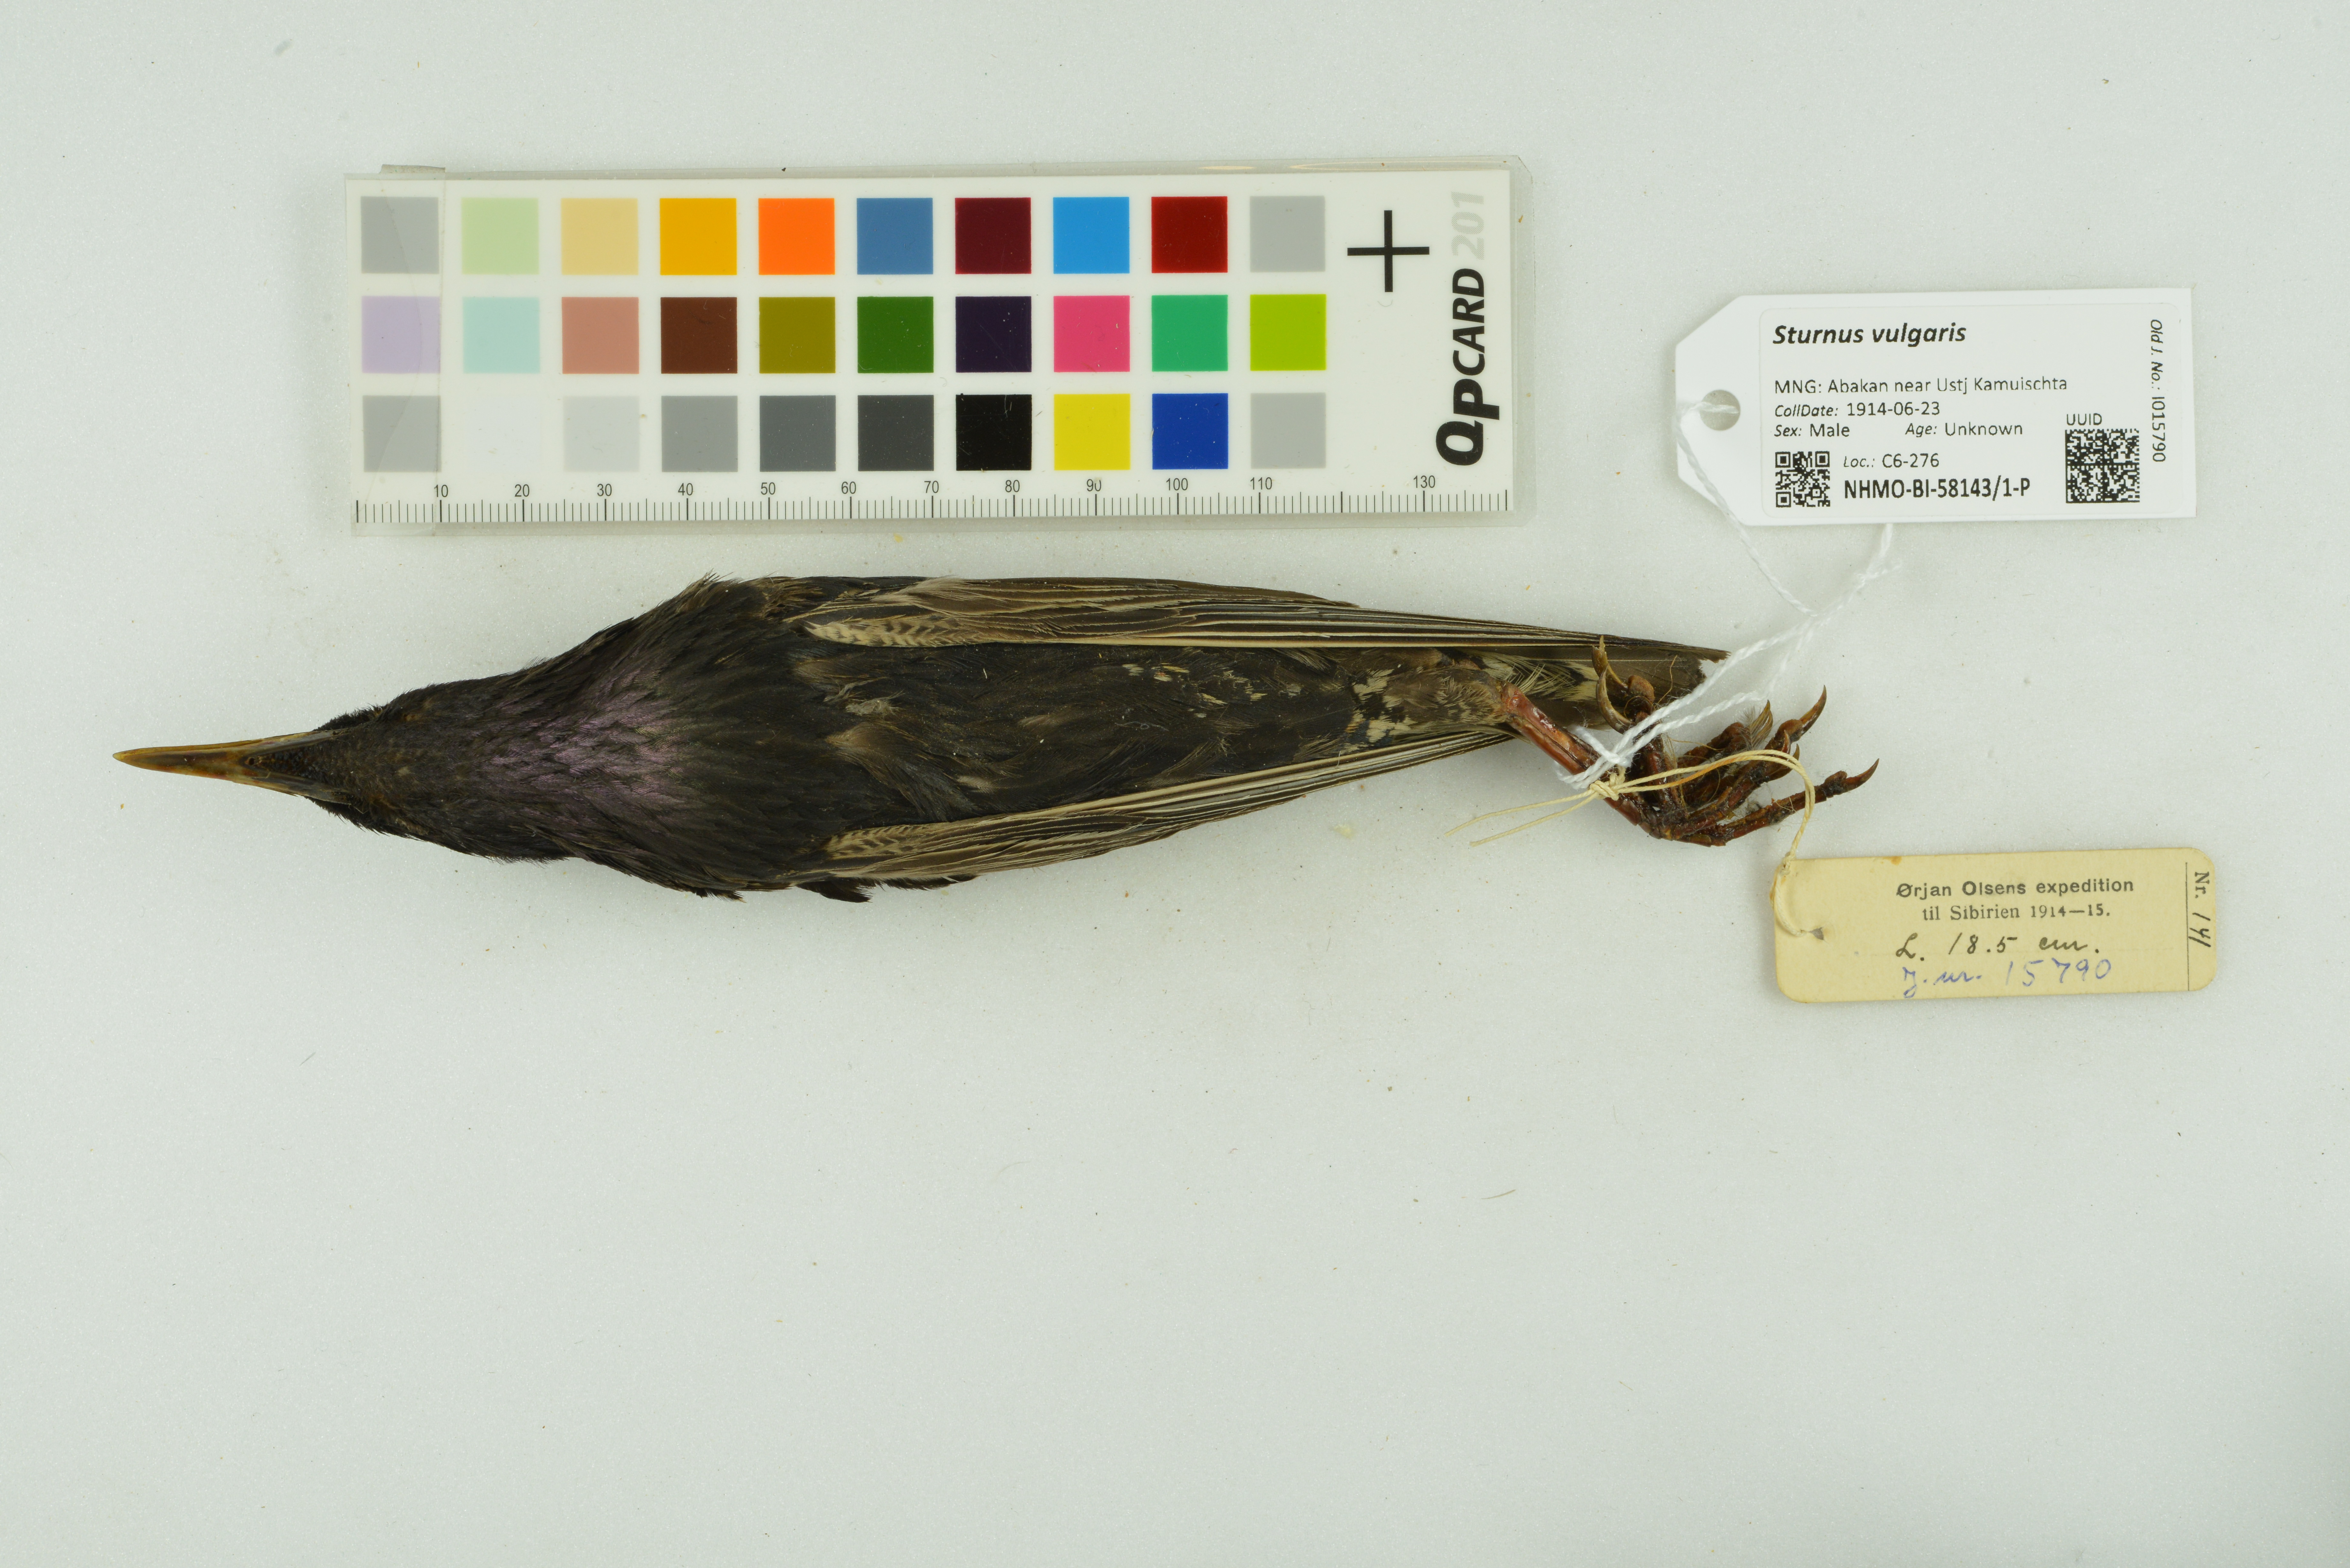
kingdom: Animalia
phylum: Chordata
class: Aves
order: Passeriformes
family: Sturnidae
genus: Sturnus
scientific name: Sturnus vulgaris
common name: Common starling
